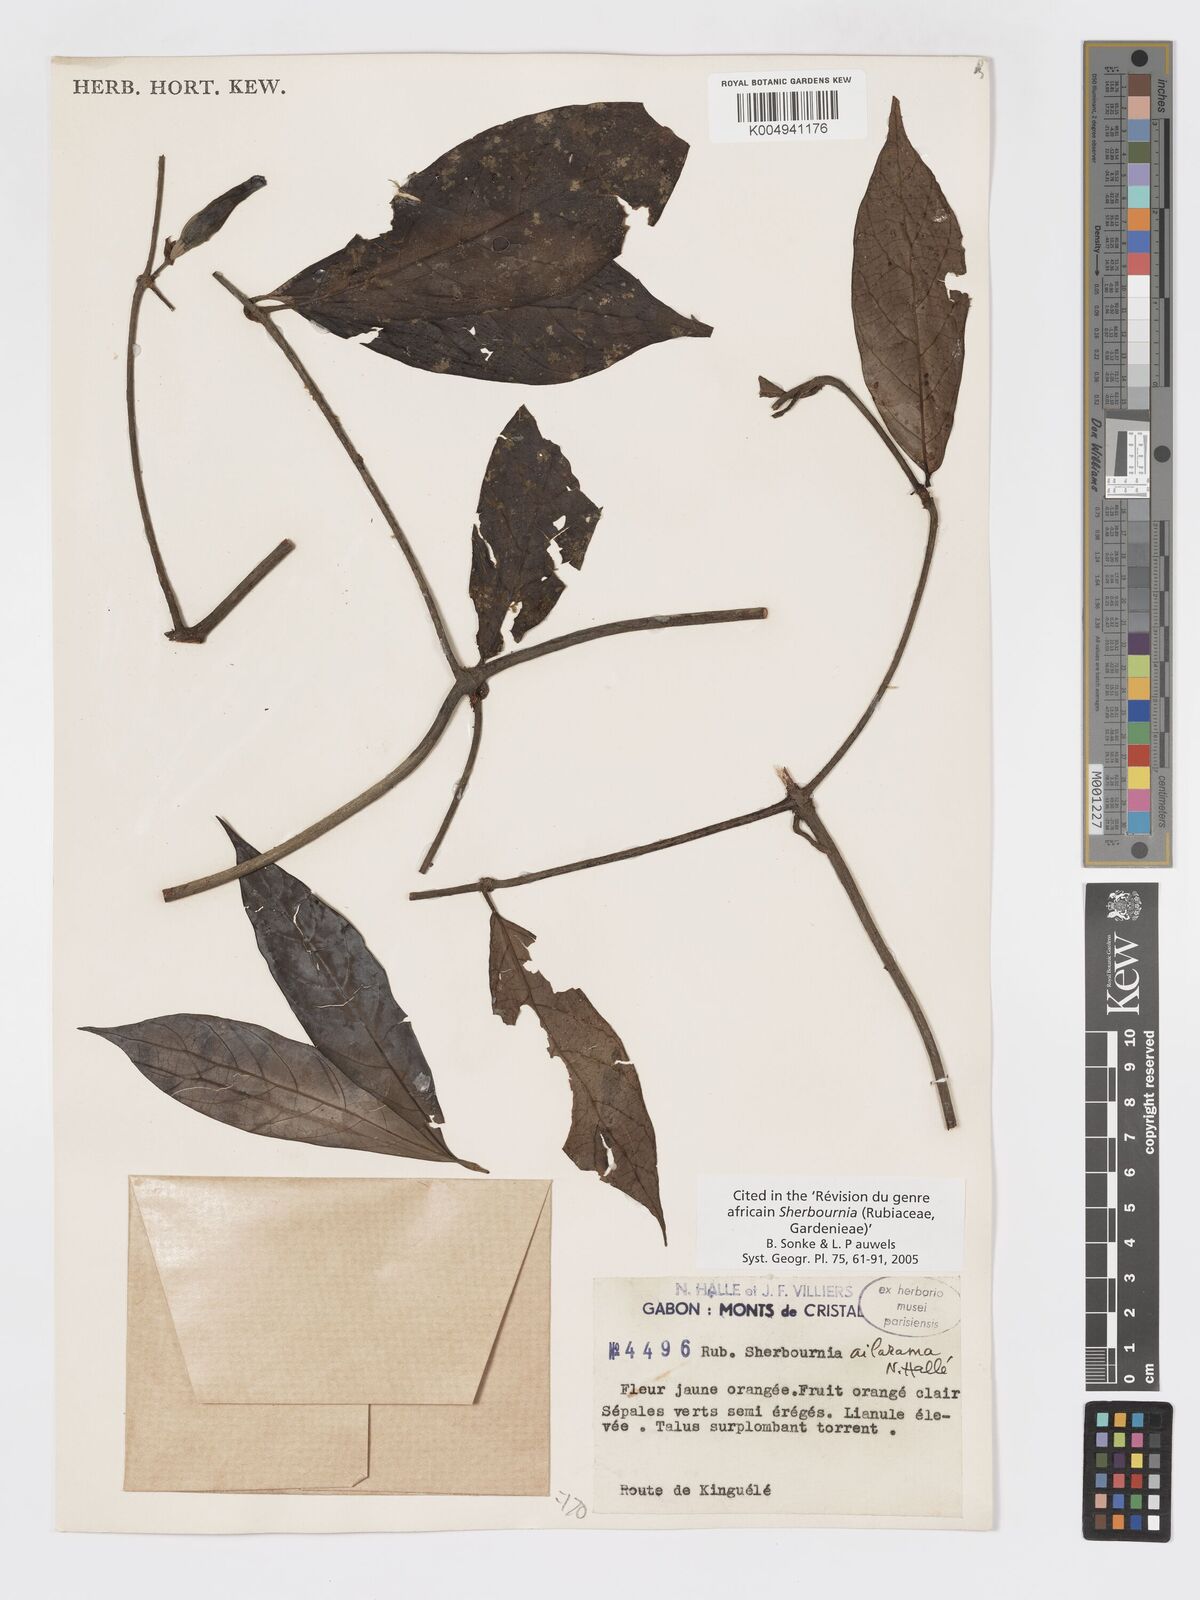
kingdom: Plantae
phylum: Tracheophyta
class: Magnoliopsida
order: Gentianales
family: Rubiaceae
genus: Sherbournia
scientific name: Sherbournia ailarama
